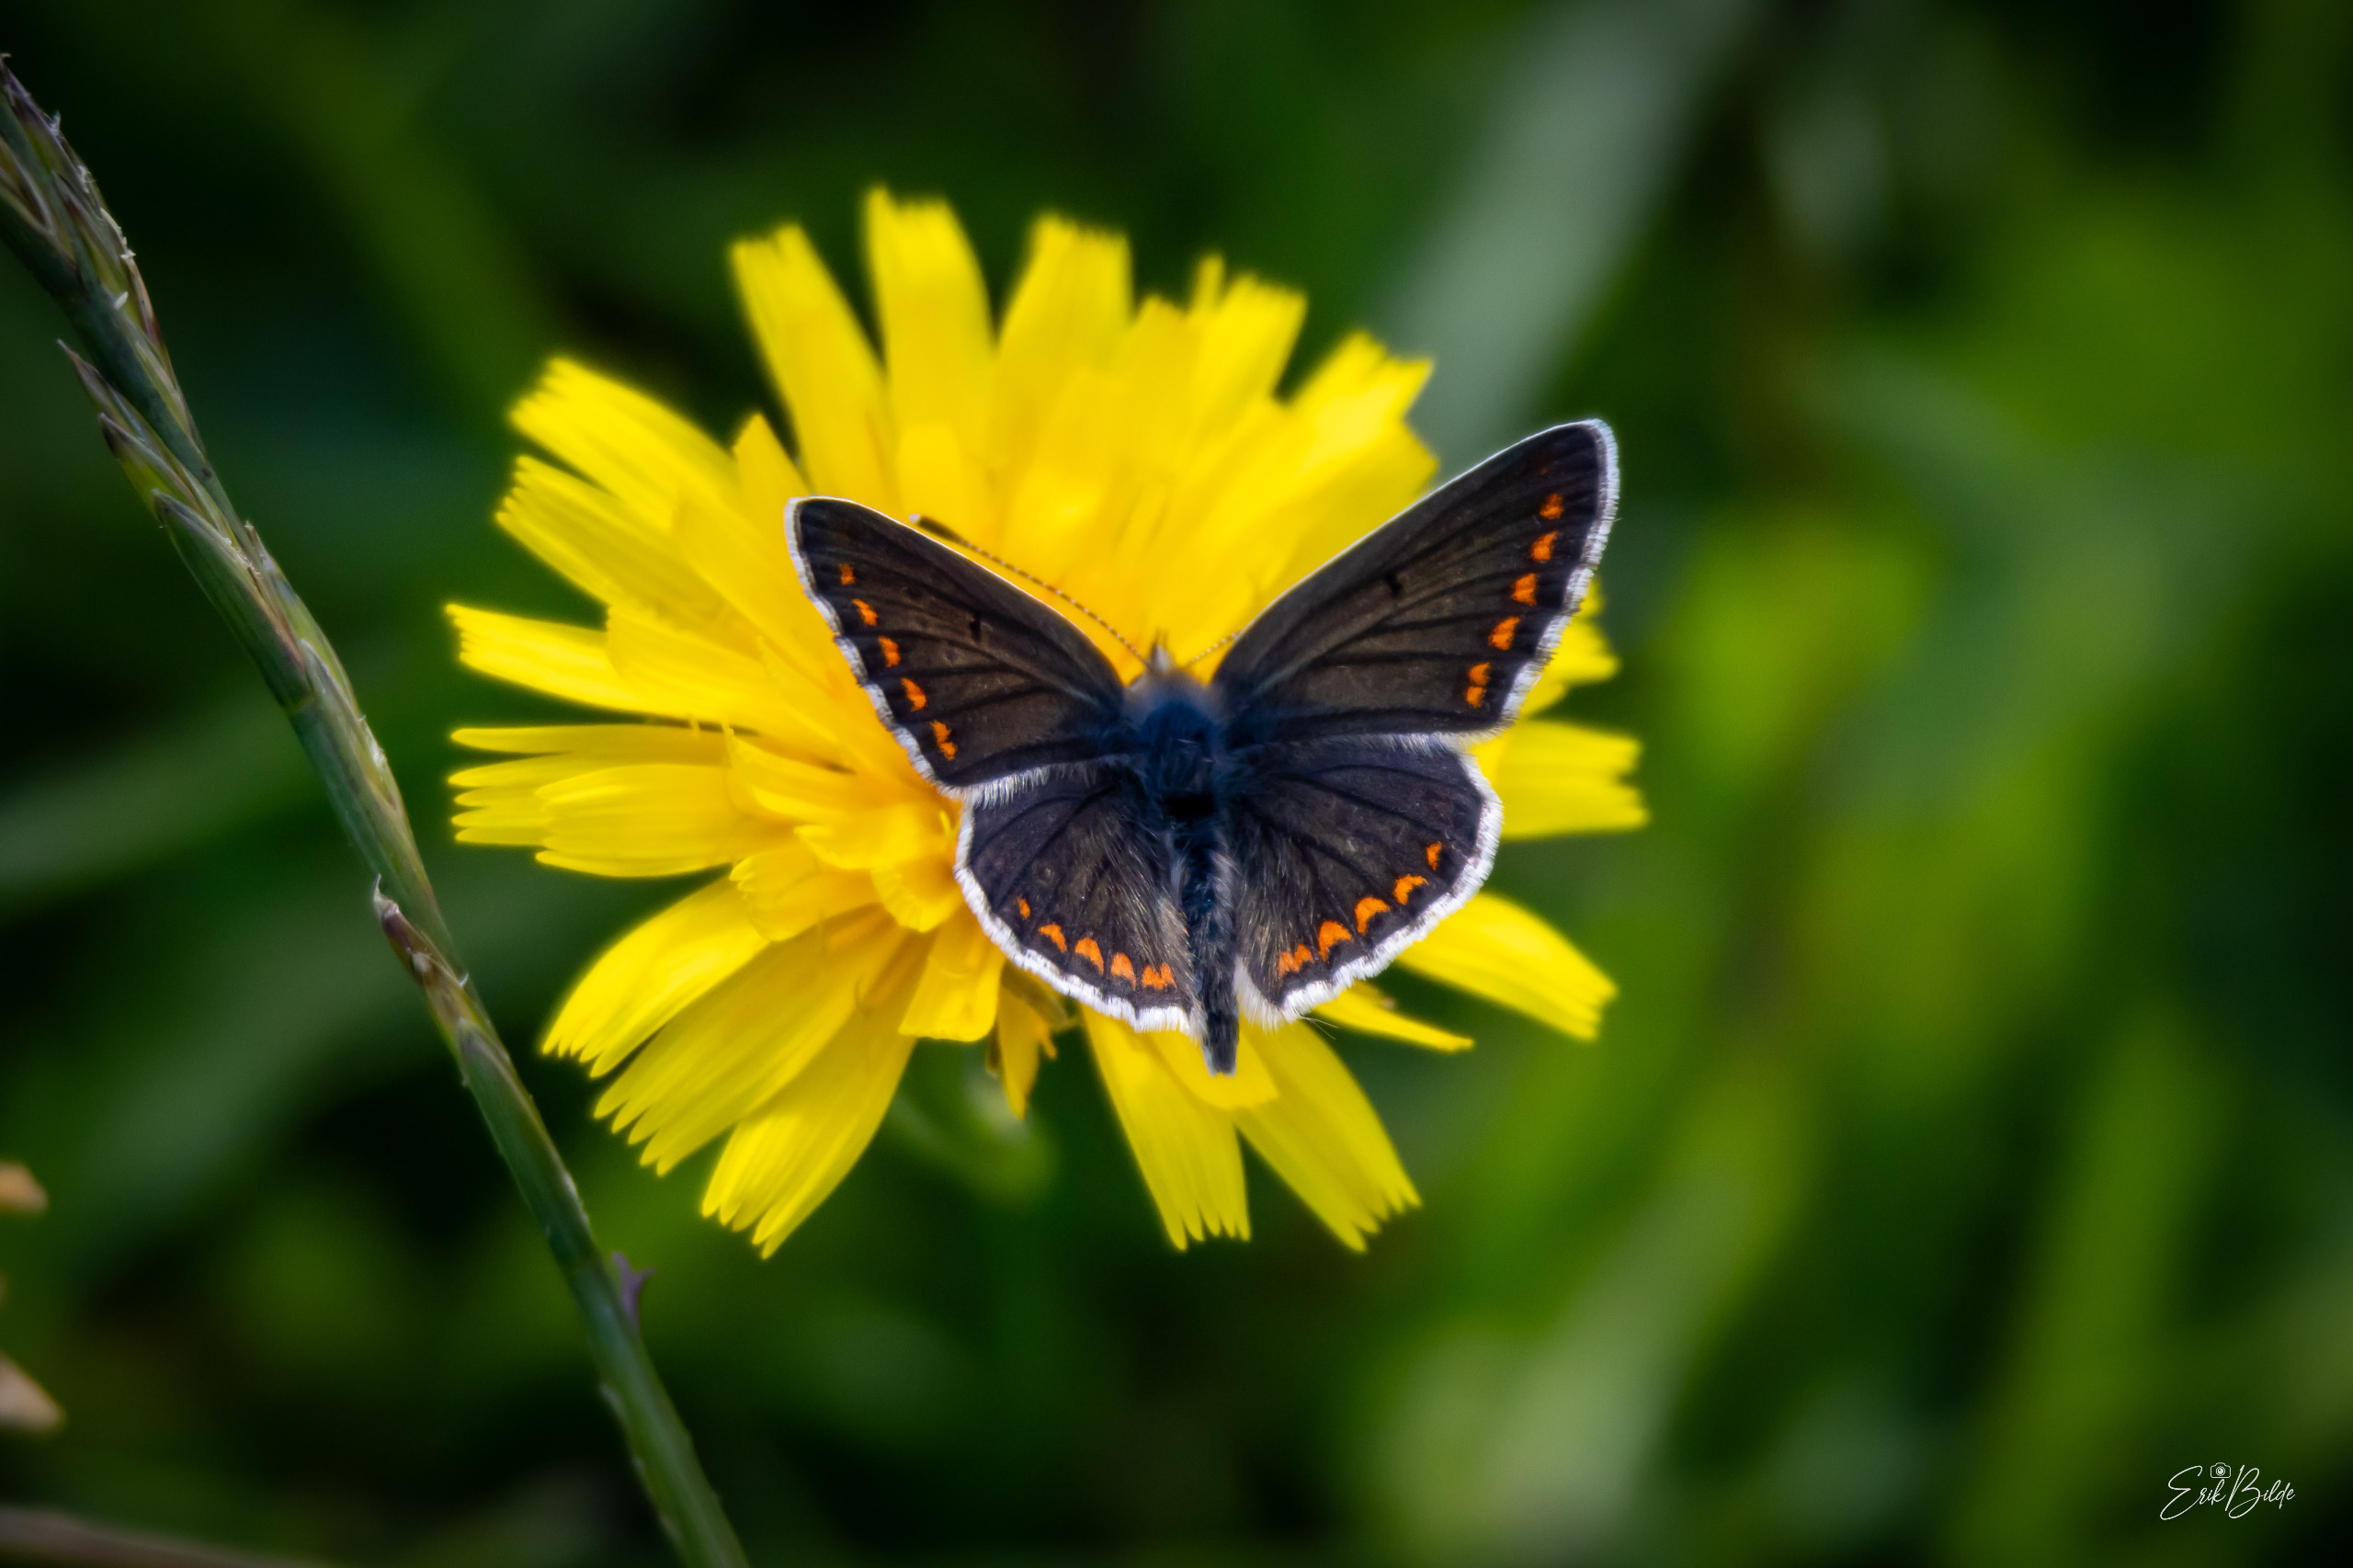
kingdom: Animalia
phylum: Arthropoda
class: Insecta
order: Lepidoptera
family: Lycaenidae
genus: Aricia
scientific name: Aricia agestis
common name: Rødplettet blåfugl
